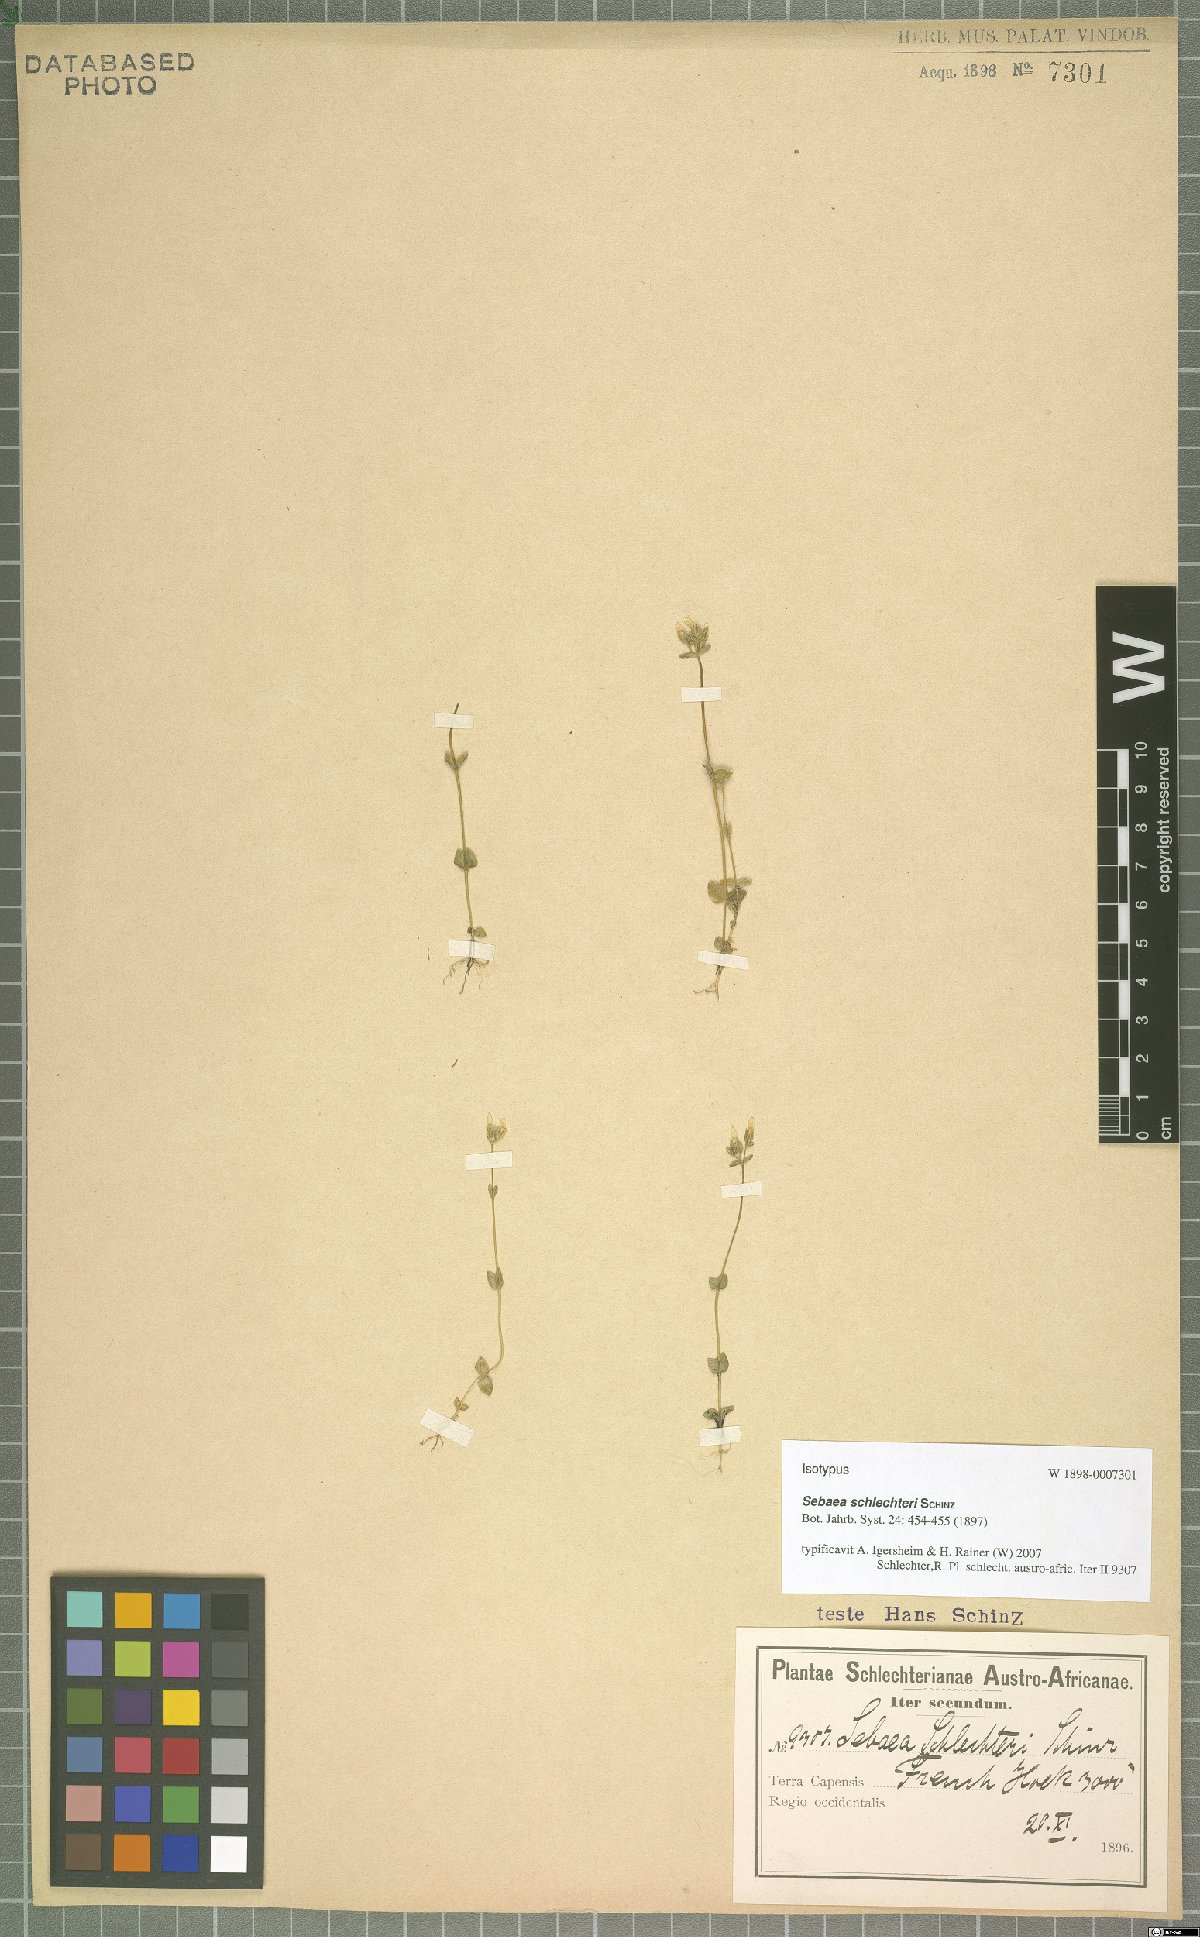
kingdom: Plantae
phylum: Tracheophyta
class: Magnoliopsida
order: Gentianales
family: Gentianaceae
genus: Sebaea
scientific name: Sebaea schlechteri
